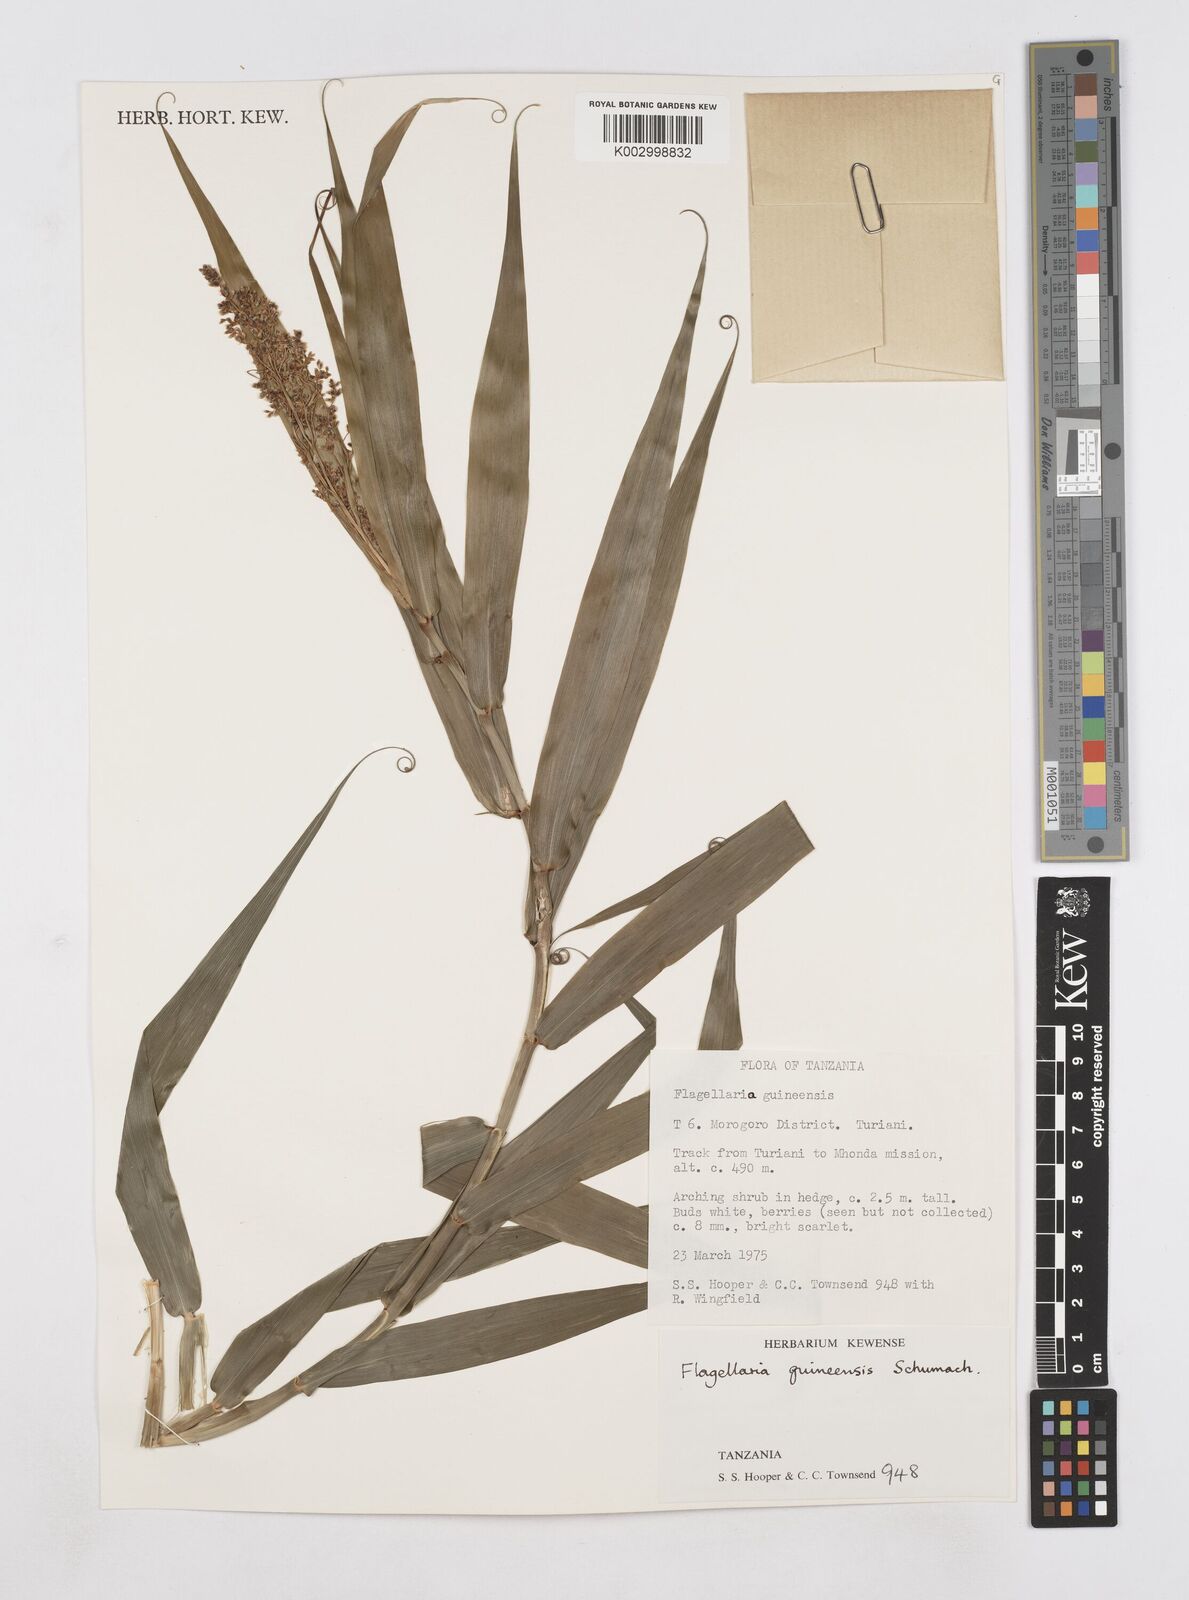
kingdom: Plantae
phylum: Tracheophyta
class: Liliopsida
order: Poales
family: Flagellariaceae
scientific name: Flagellariaceae
